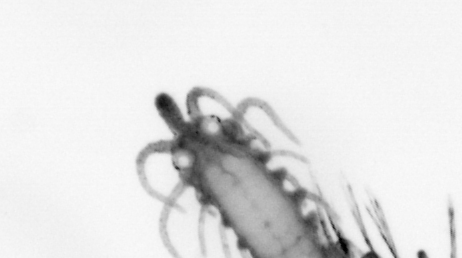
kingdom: Animalia
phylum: Annelida
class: Polychaeta
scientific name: Polychaeta
